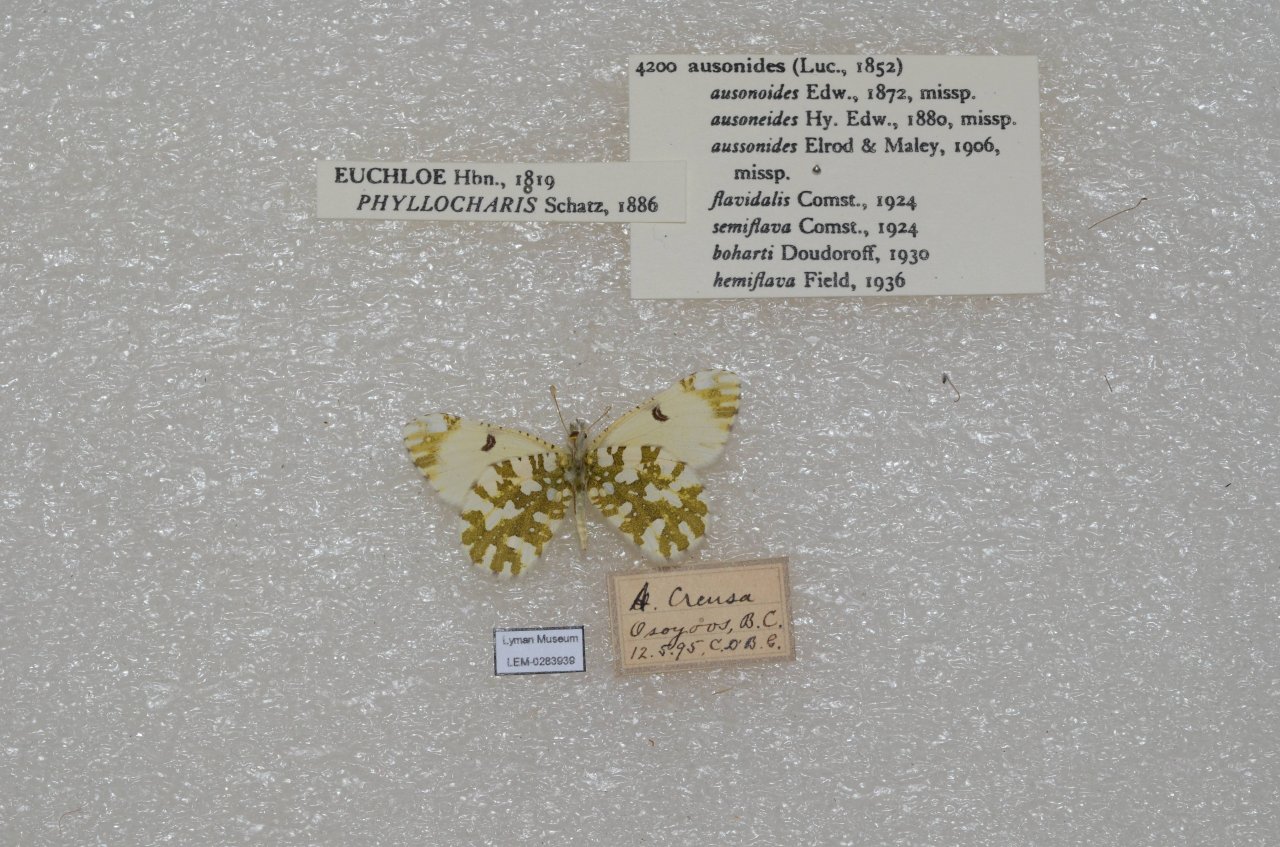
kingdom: Animalia
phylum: Arthropoda
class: Insecta
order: Lepidoptera
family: Pieridae
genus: Euchloe
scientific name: Euchloe ausonides
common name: Large Marble
